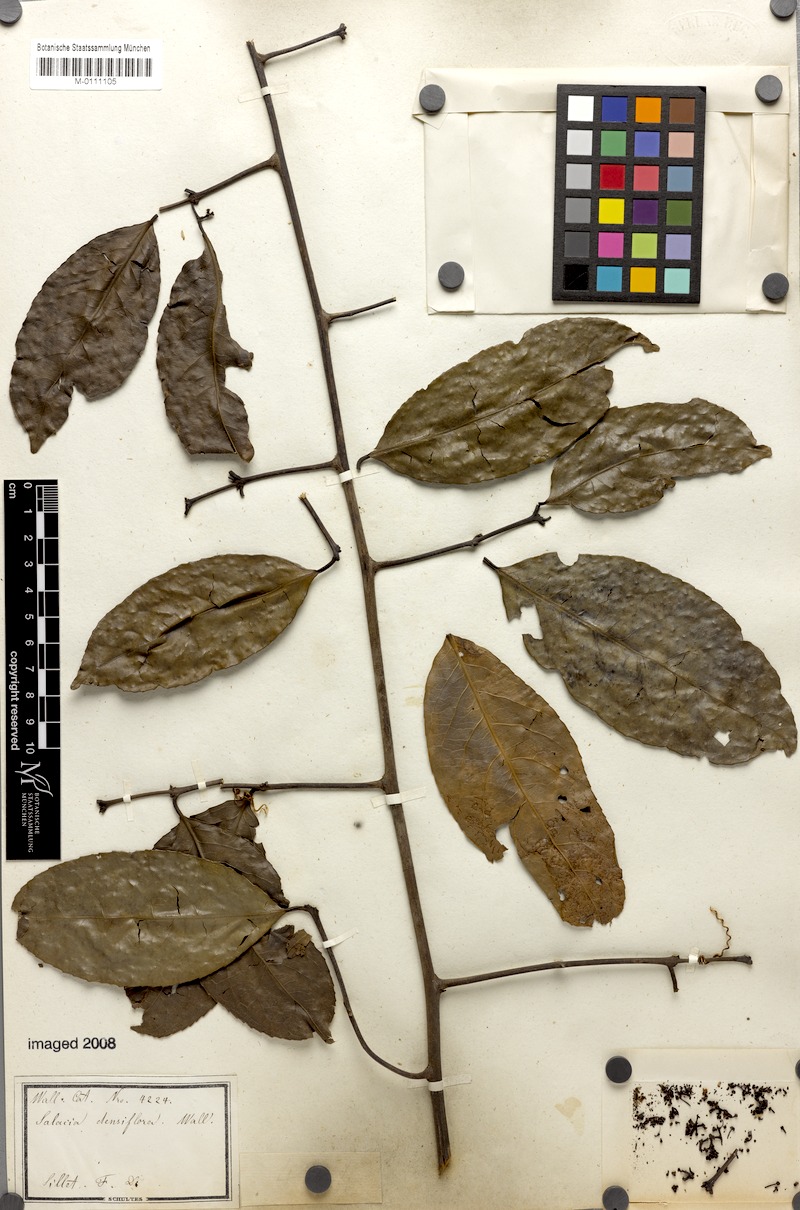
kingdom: Plantae
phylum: Tracheophyta
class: Magnoliopsida
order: Celastrales
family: Celastraceae
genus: Salacia
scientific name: Salacia floribunda
